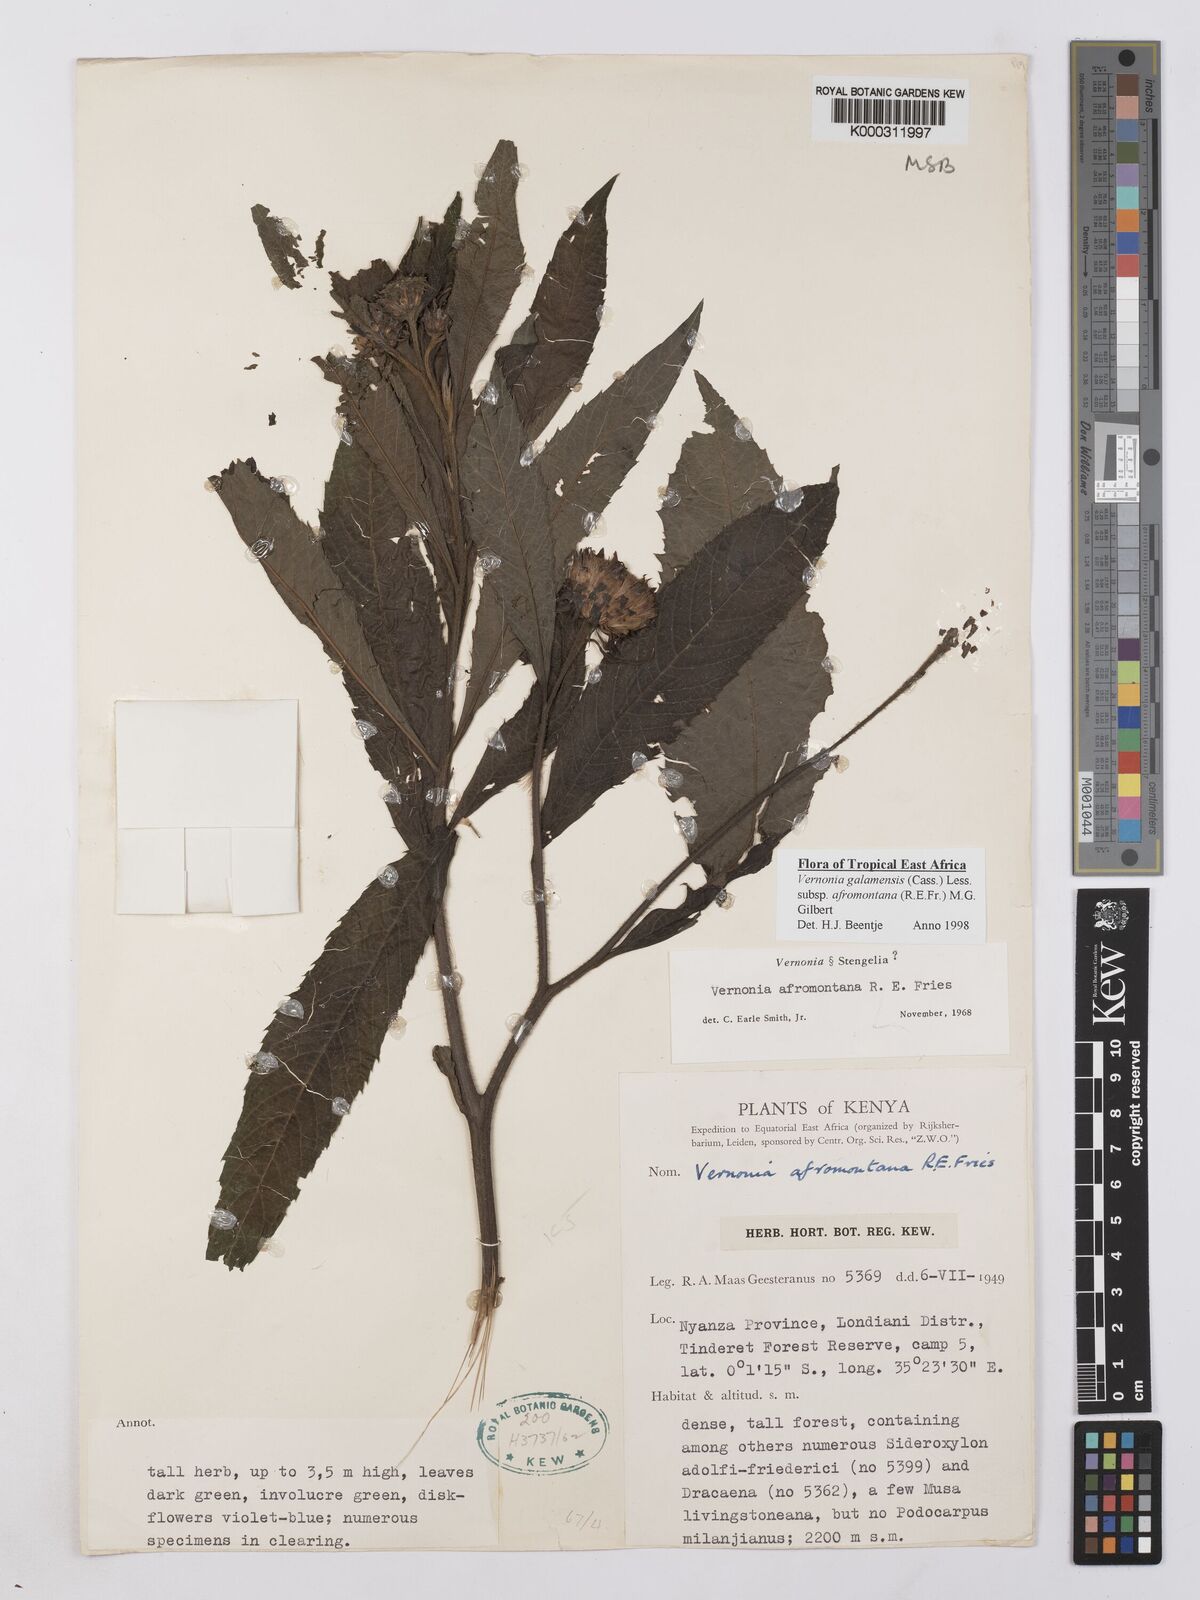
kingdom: Plantae
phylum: Tracheophyta
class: Magnoliopsida
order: Asterales
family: Asteraceae
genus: Vernonia
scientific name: Vernonia galamensis
